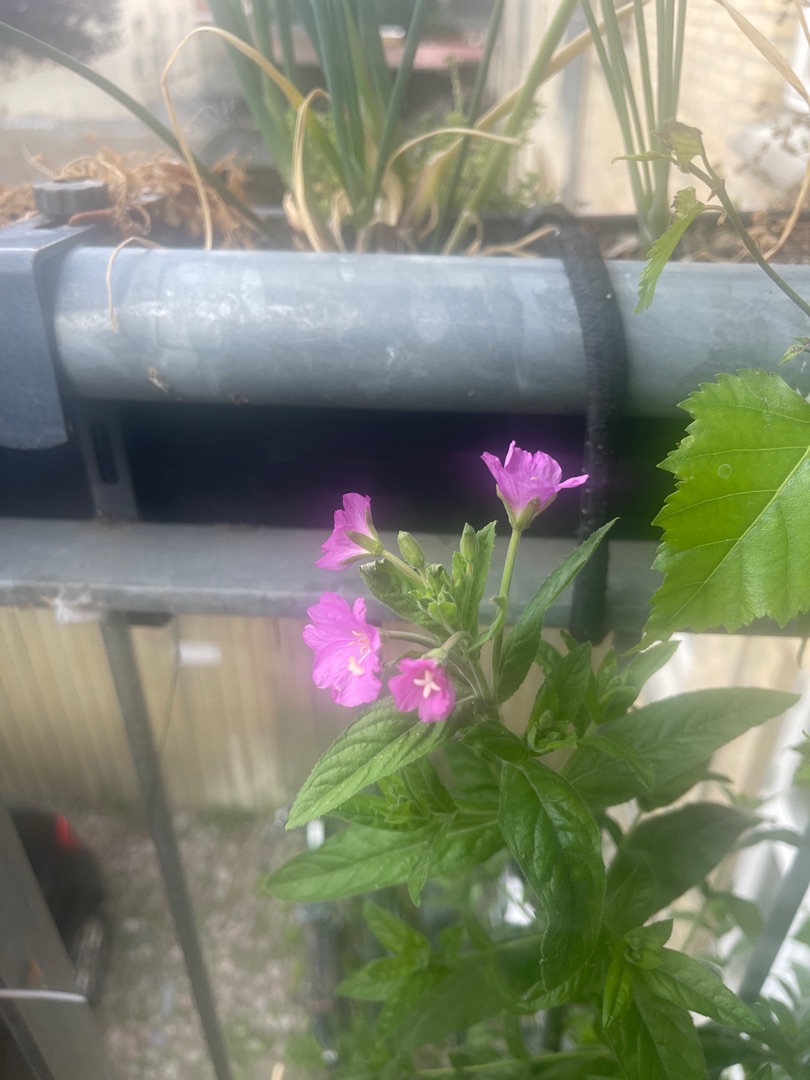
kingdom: Plantae
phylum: Tracheophyta
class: Magnoliopsida
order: Myrtales
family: Onagraceae
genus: Epilobium
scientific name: Epilobium hirsutum
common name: Lådden dueurt
